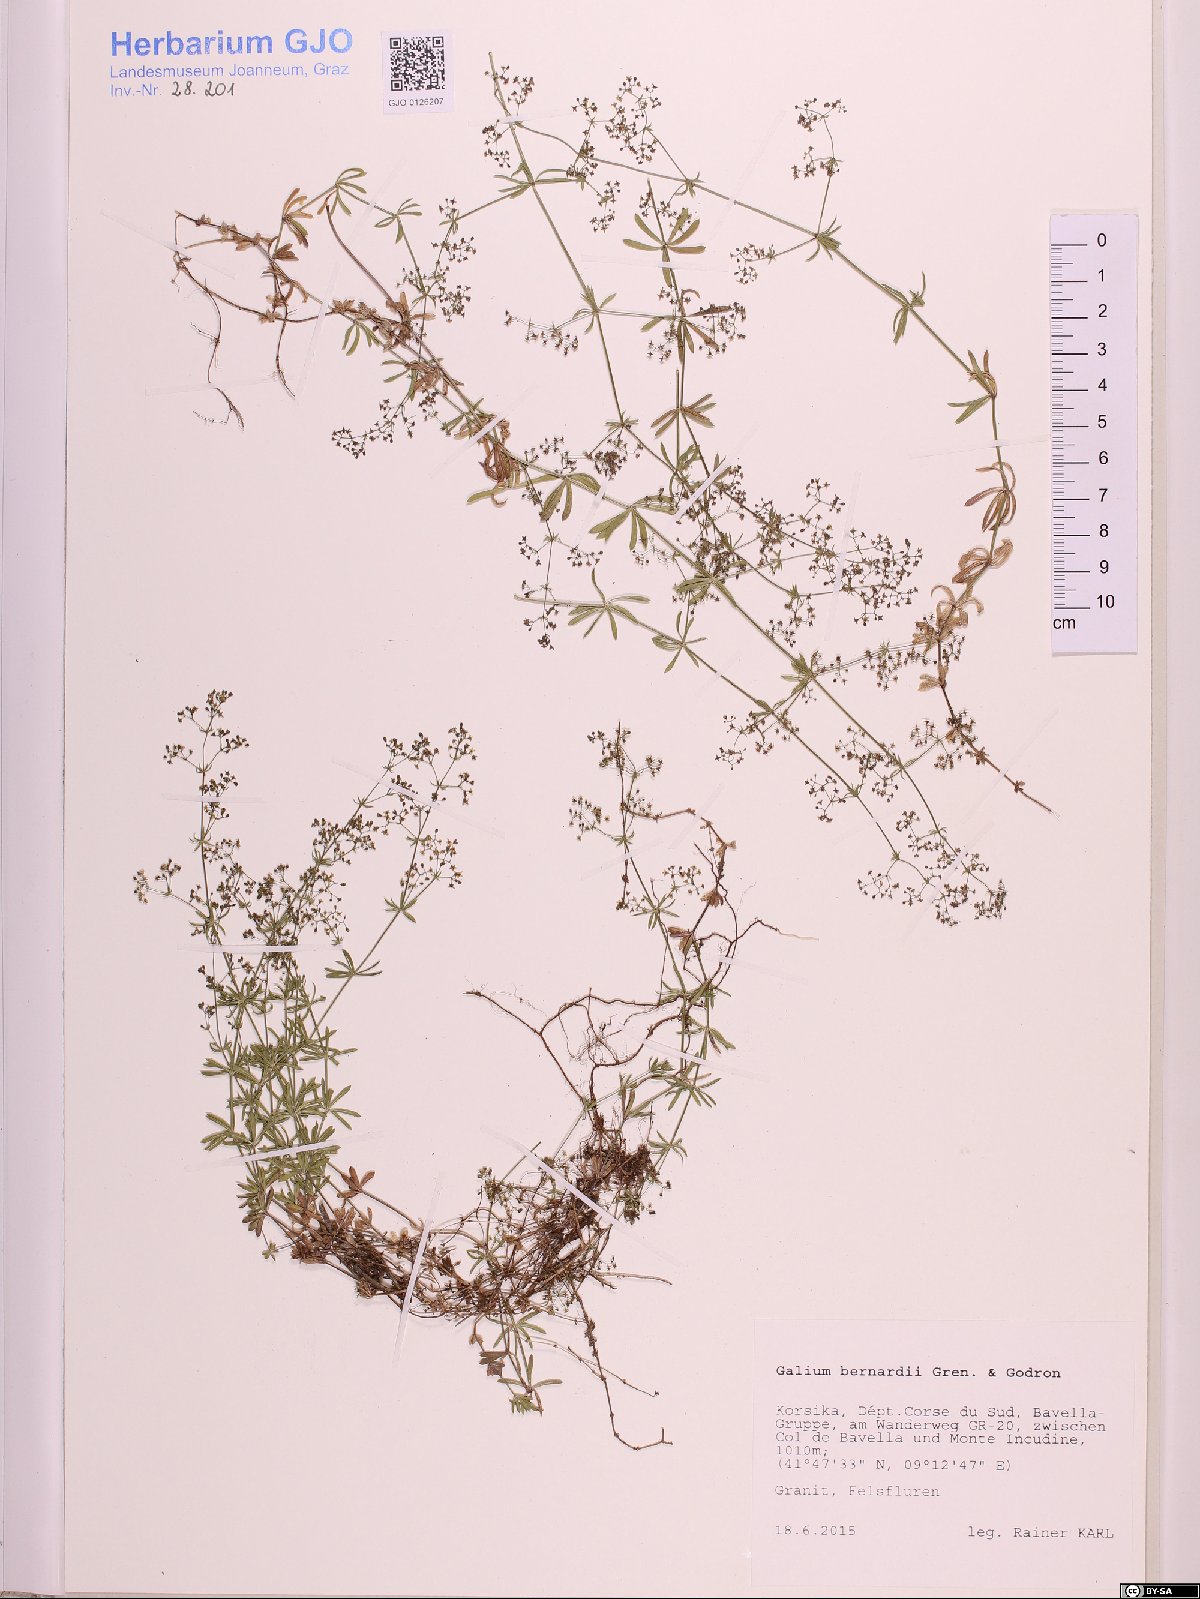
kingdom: Plantae
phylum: Tracheophyta
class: Magnoliopsida
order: Gentianales
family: Rubiaceae
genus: Galium
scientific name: Galium lucidum
